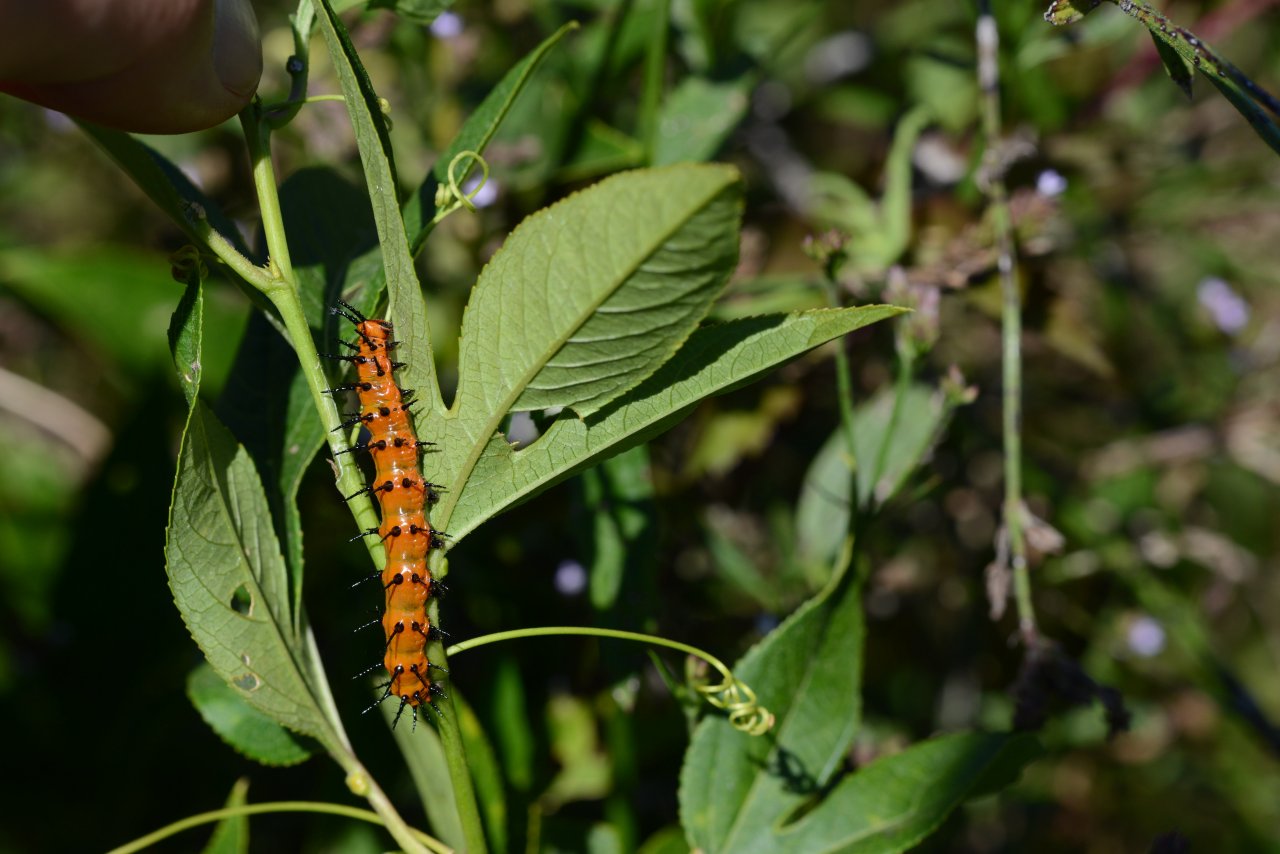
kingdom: Animalia
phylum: Arthropoda
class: Insecta
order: Lepidoptera
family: Nymphalidae
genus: Dione
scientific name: Dione vanillae
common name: Gulf Fritillary
